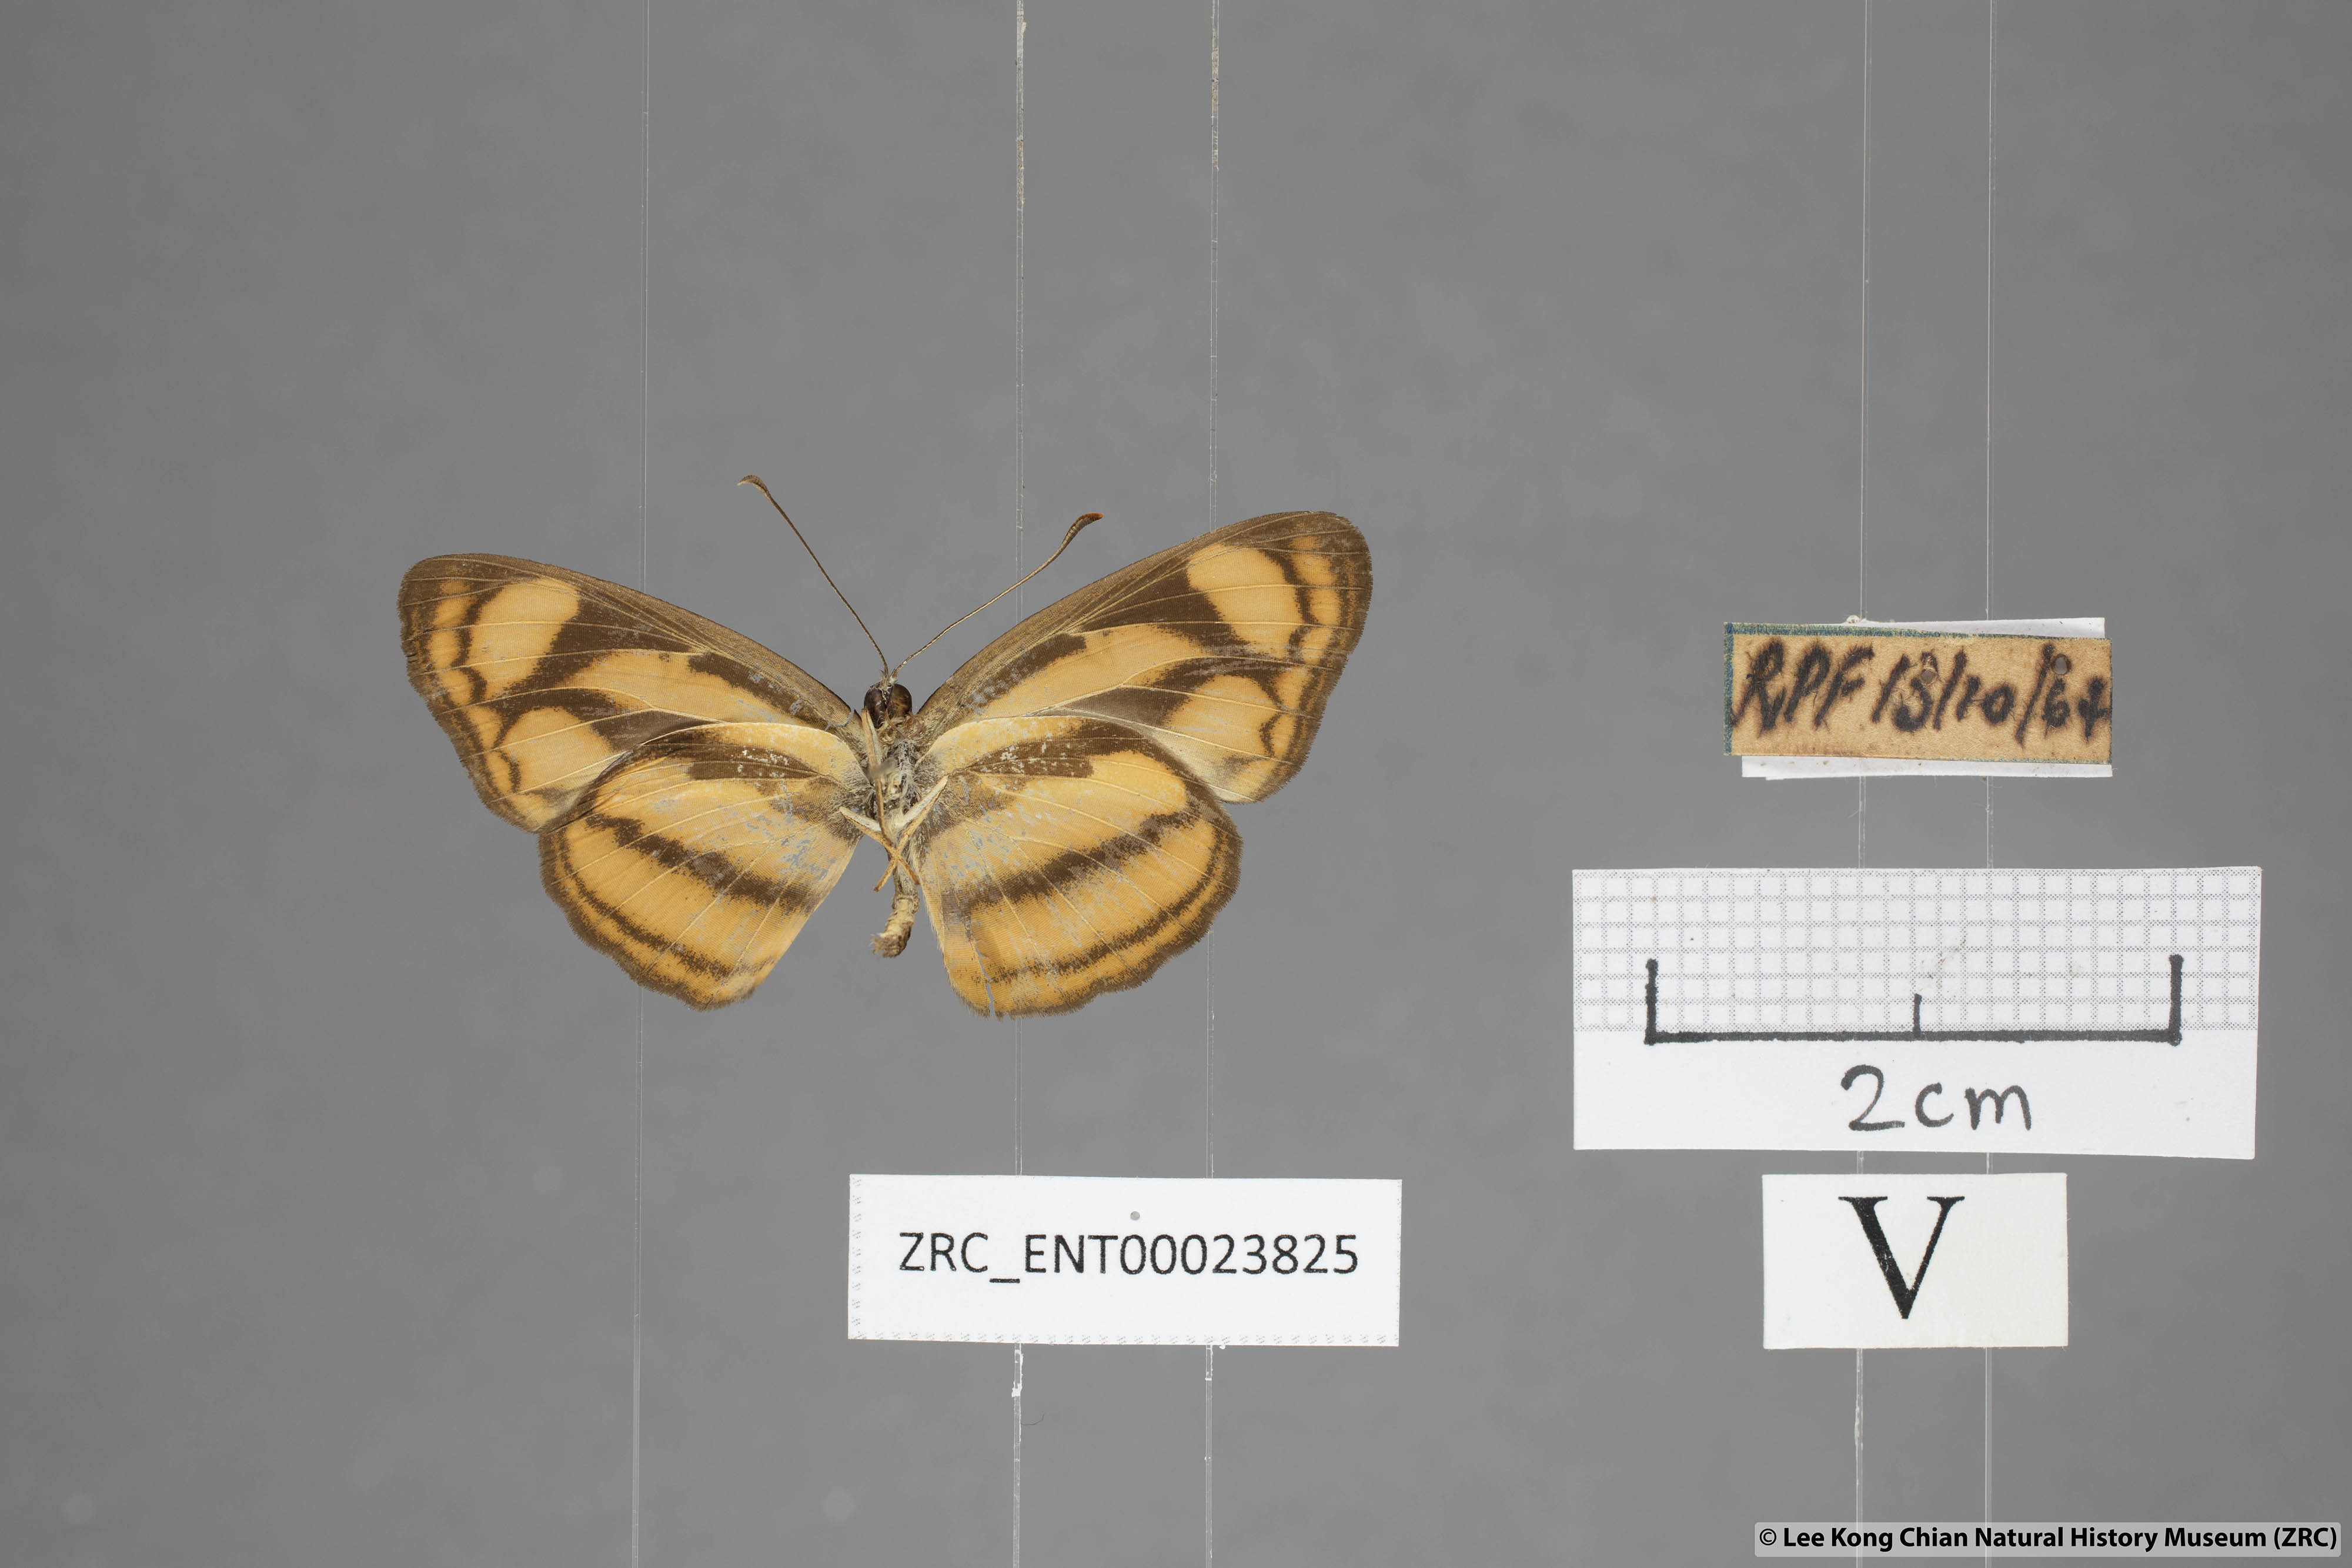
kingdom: Animalia
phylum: Arthropoda
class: Insecta
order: Lepidoptera
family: Nymphalidae
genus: Lasippa
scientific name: Lasippa heliodore
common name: Burmese lascar
